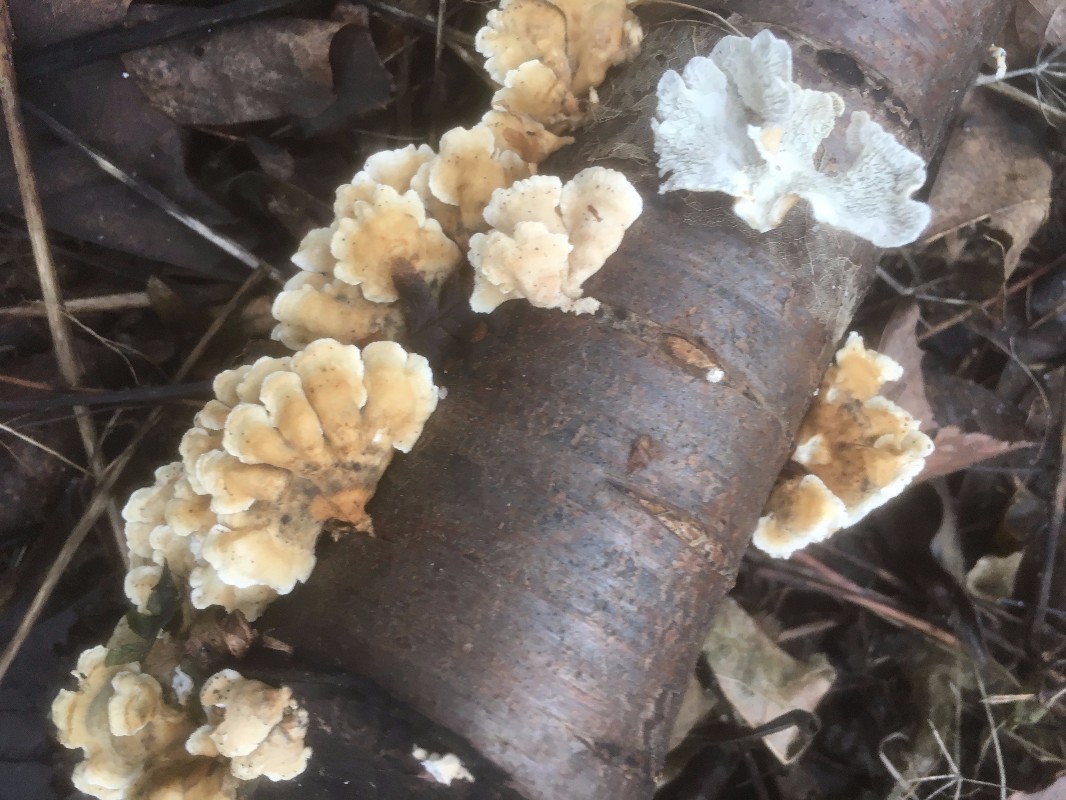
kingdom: Fungi
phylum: Basidiomycota
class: Agaricomycetes
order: Amylocorticiales
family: Amylocorticiaceae
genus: Plicaturopsis
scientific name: Plicaturopsis crispa
